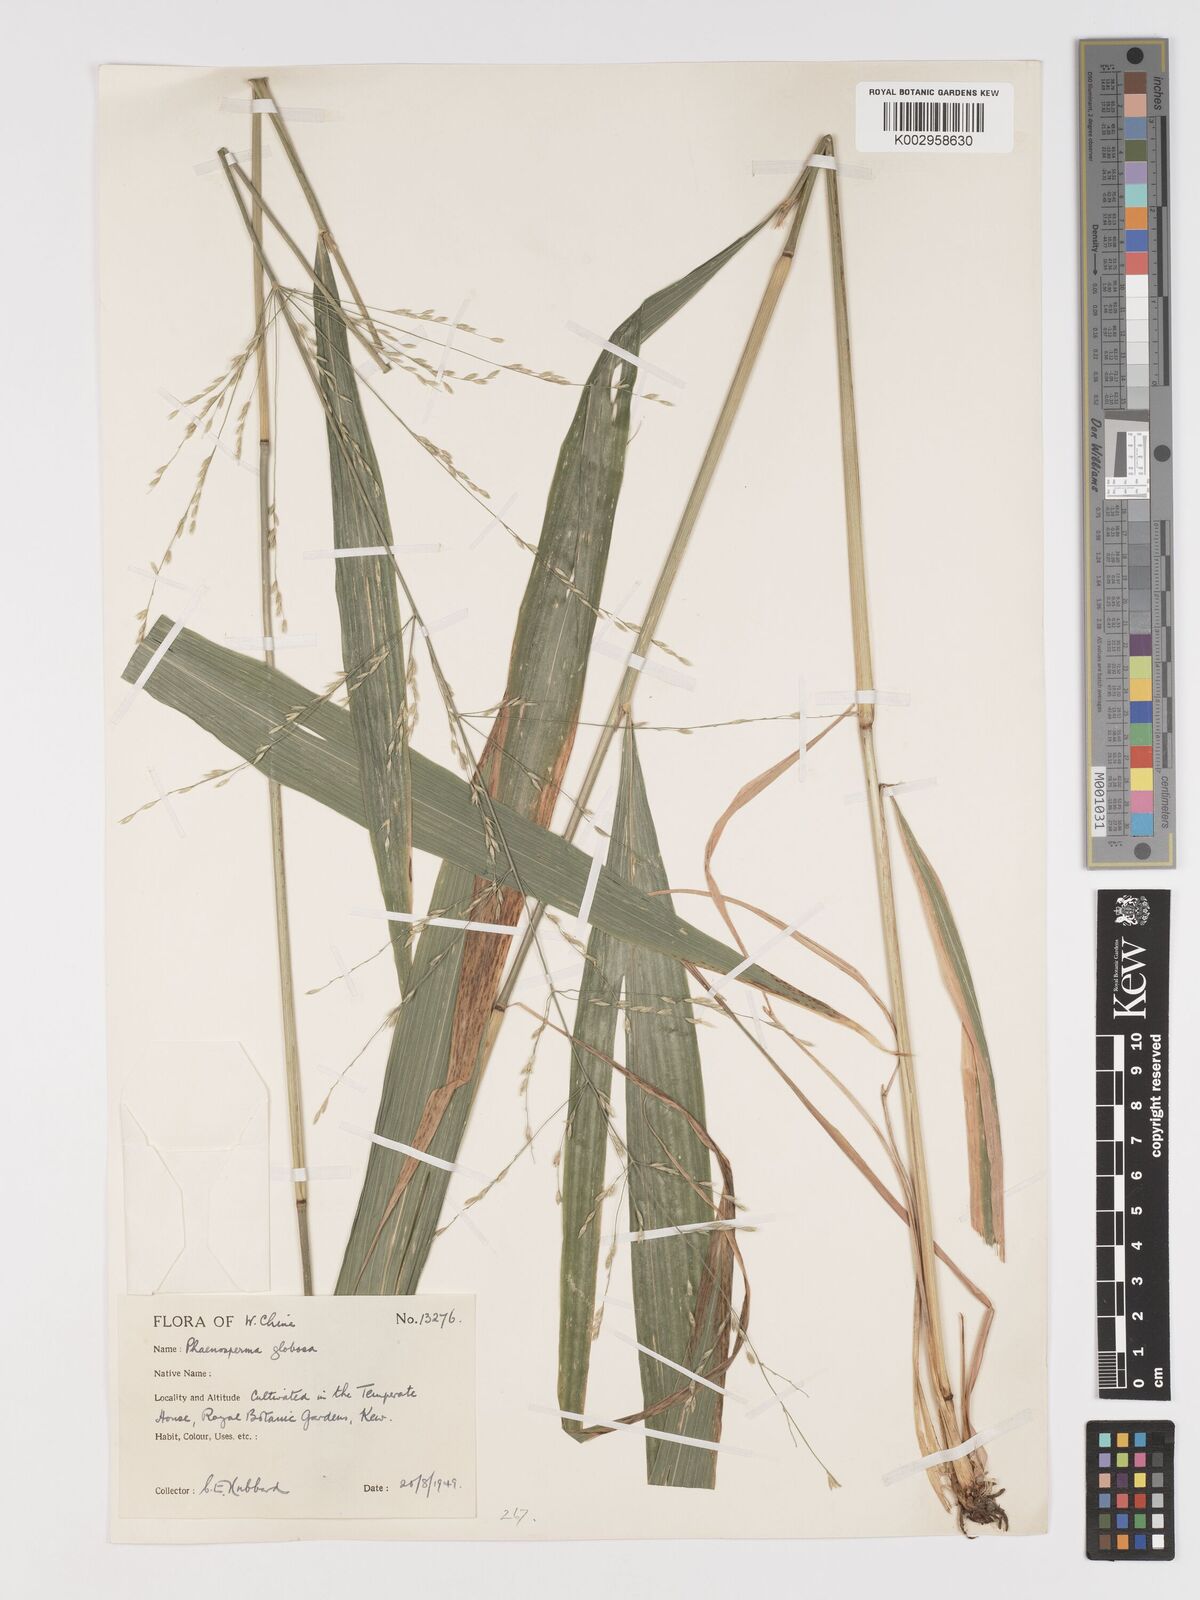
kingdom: Plantae
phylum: Tracheophyta
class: Liliopsida
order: Poales
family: Poaceae
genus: Phaenosperma
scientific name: Phaenosperma globosum
